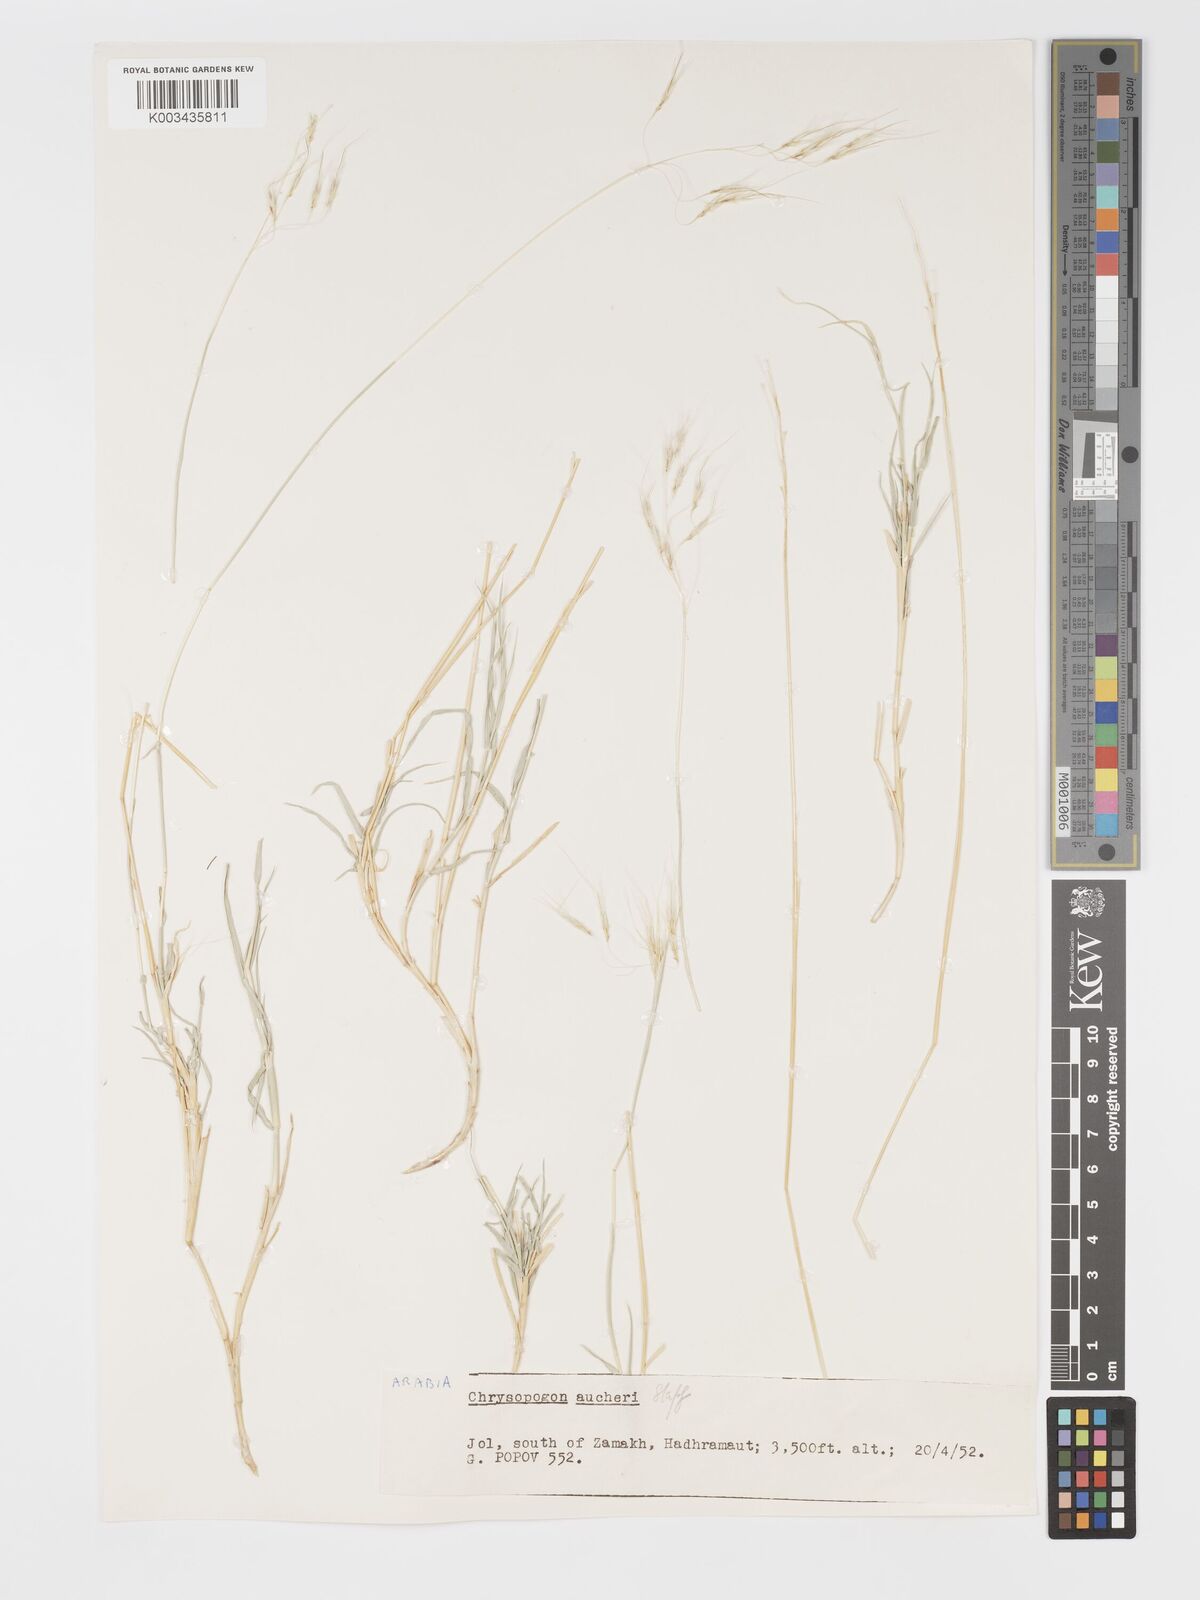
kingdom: Plantae
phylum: Tracheophyta
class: Liliopsida
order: Poales
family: Poaceae
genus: Chrysopogon
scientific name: Chrysopogon plumulosus
